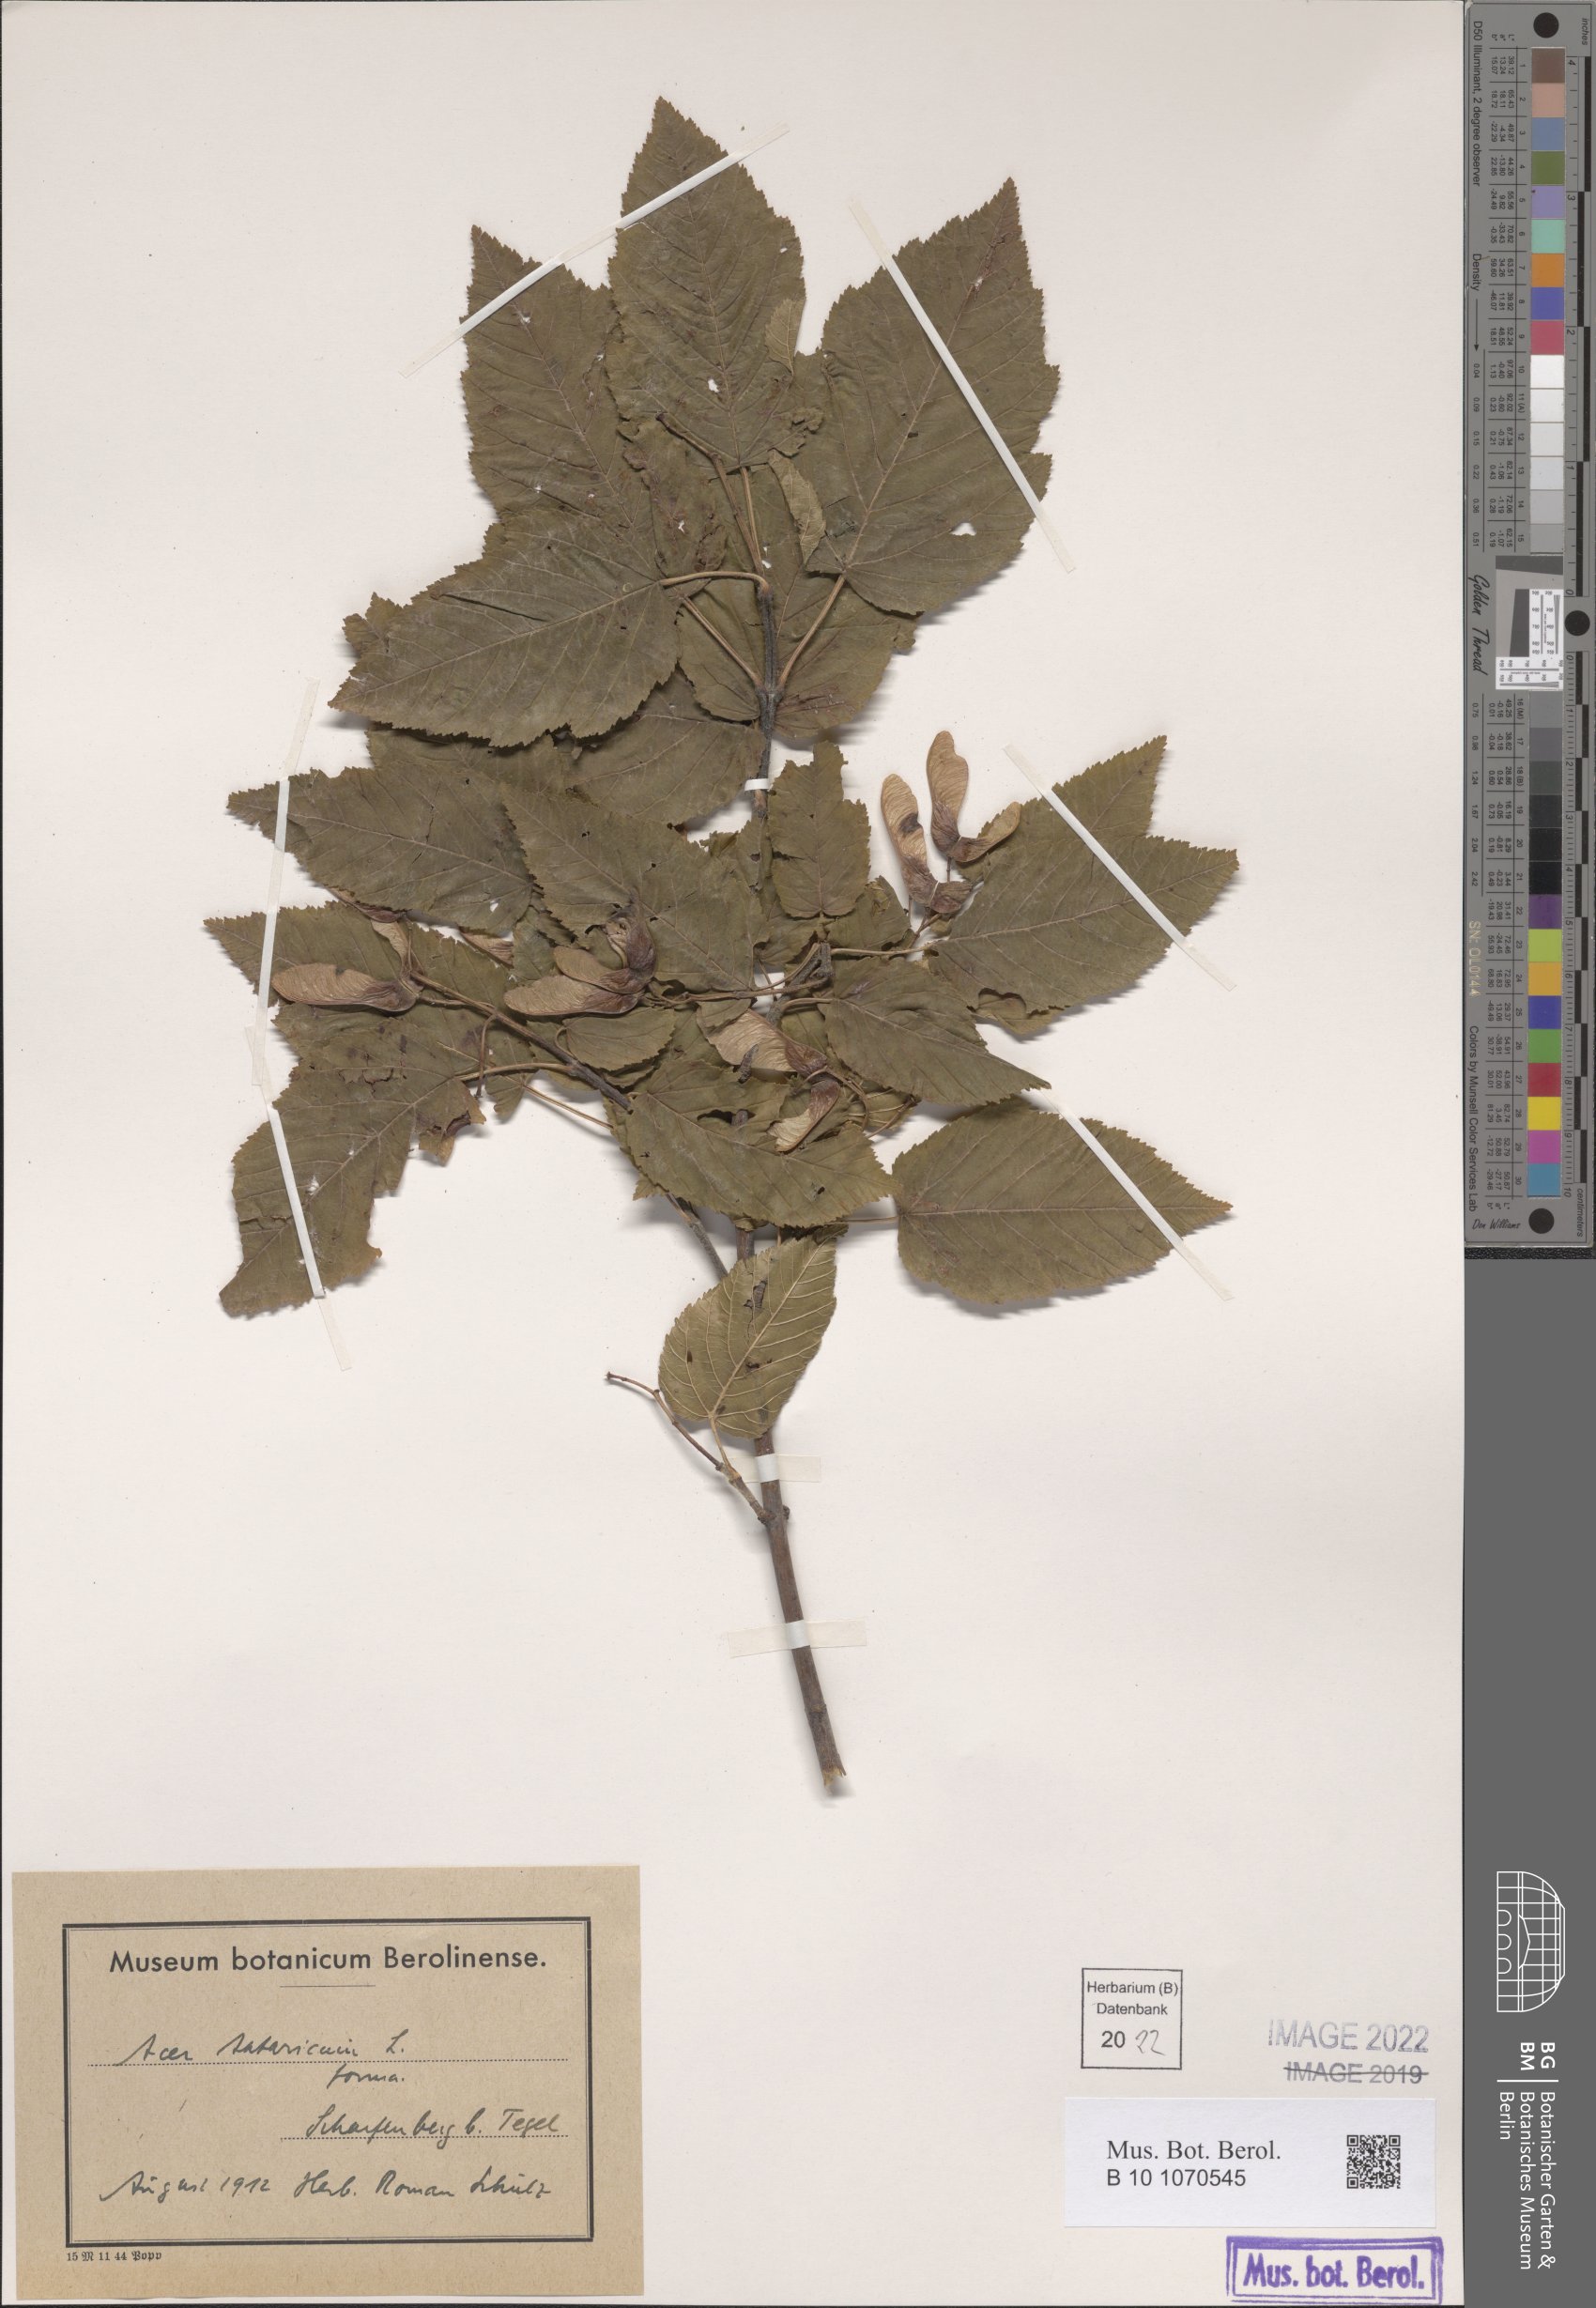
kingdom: Plantae
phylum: Tracheophyta
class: Magnoliopsida
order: Sapindales
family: Sapindaceae
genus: Acer
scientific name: Acer tataricum
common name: Tartar maple
